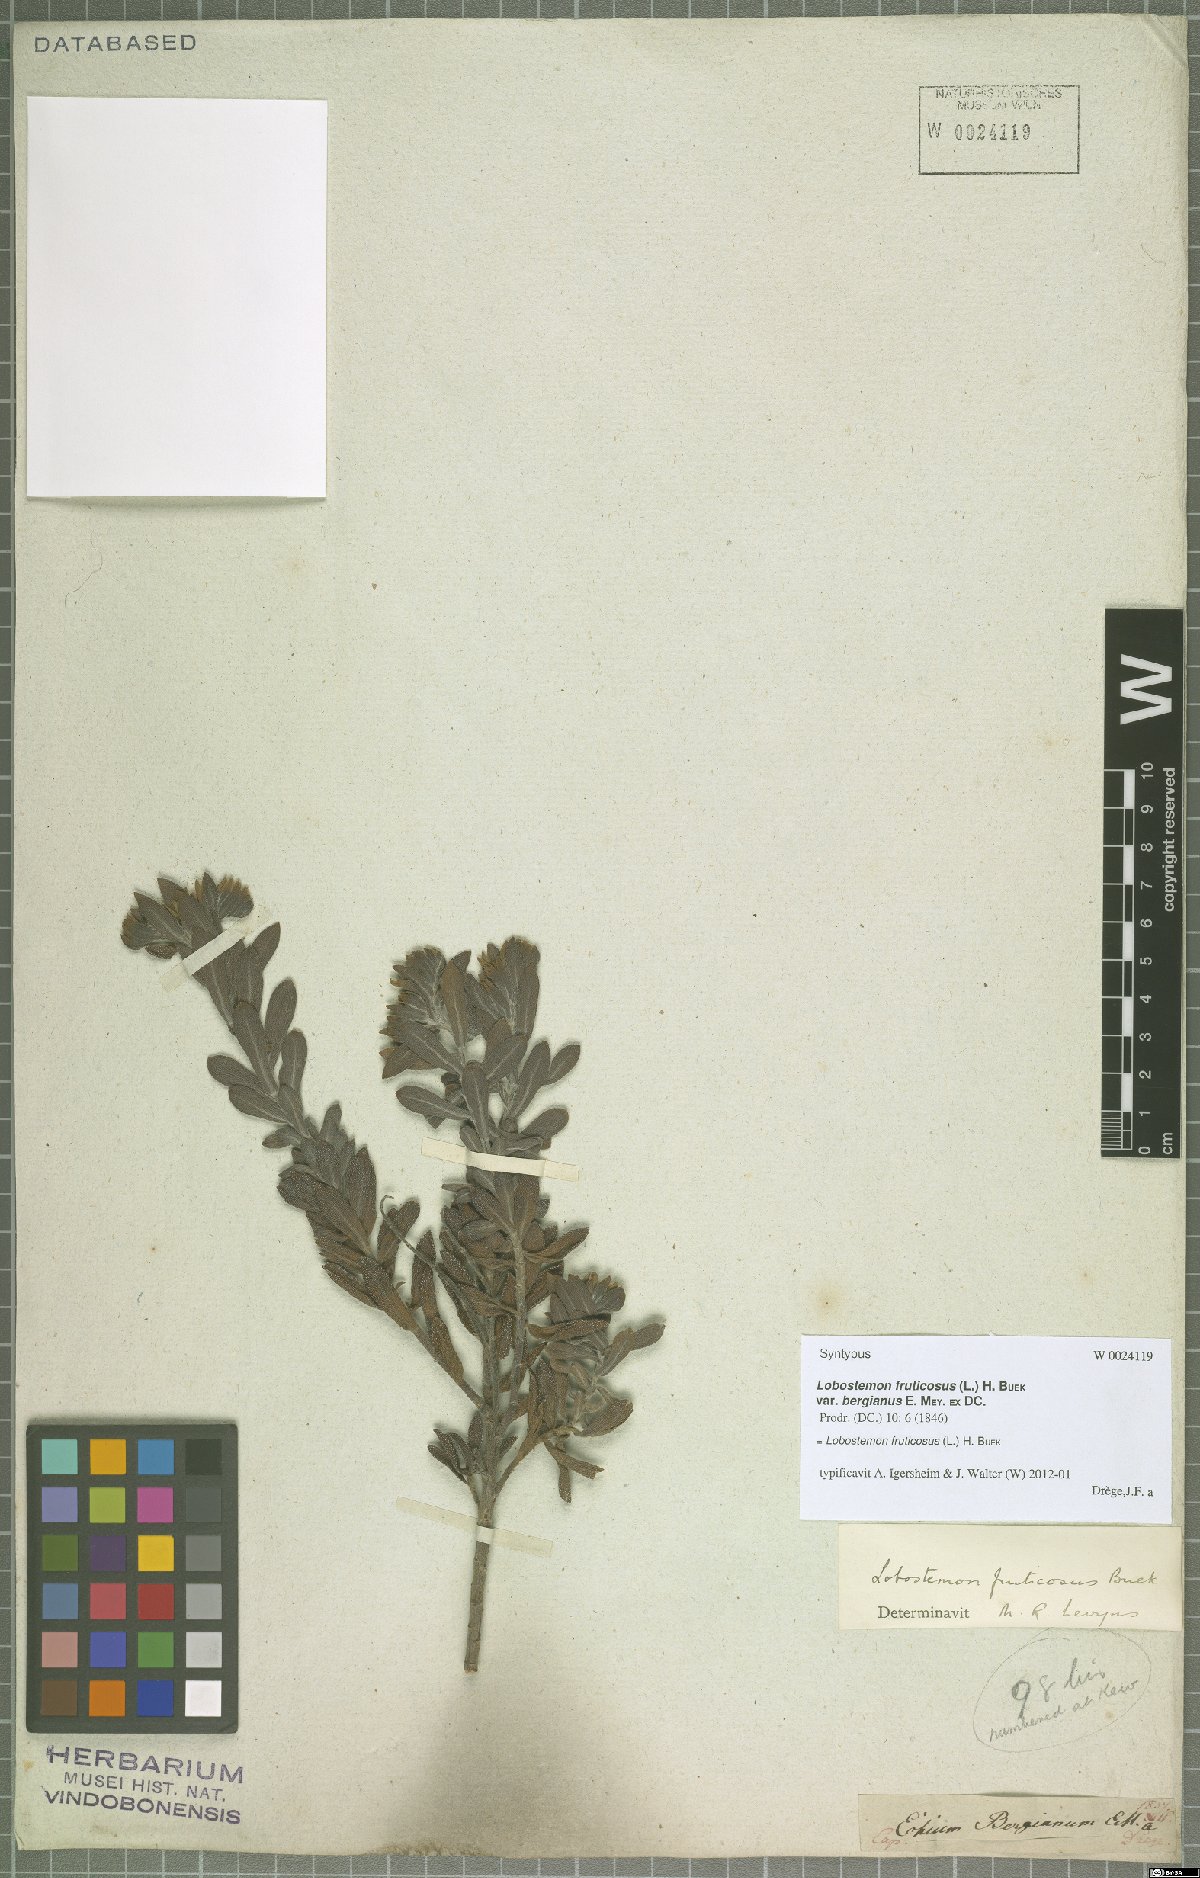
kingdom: Plantae
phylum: Tracheophyta
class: Magnoliopsida
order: Boraginales
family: Boraginaceae
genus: Lobostemon
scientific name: Lobostemon fruticosus
